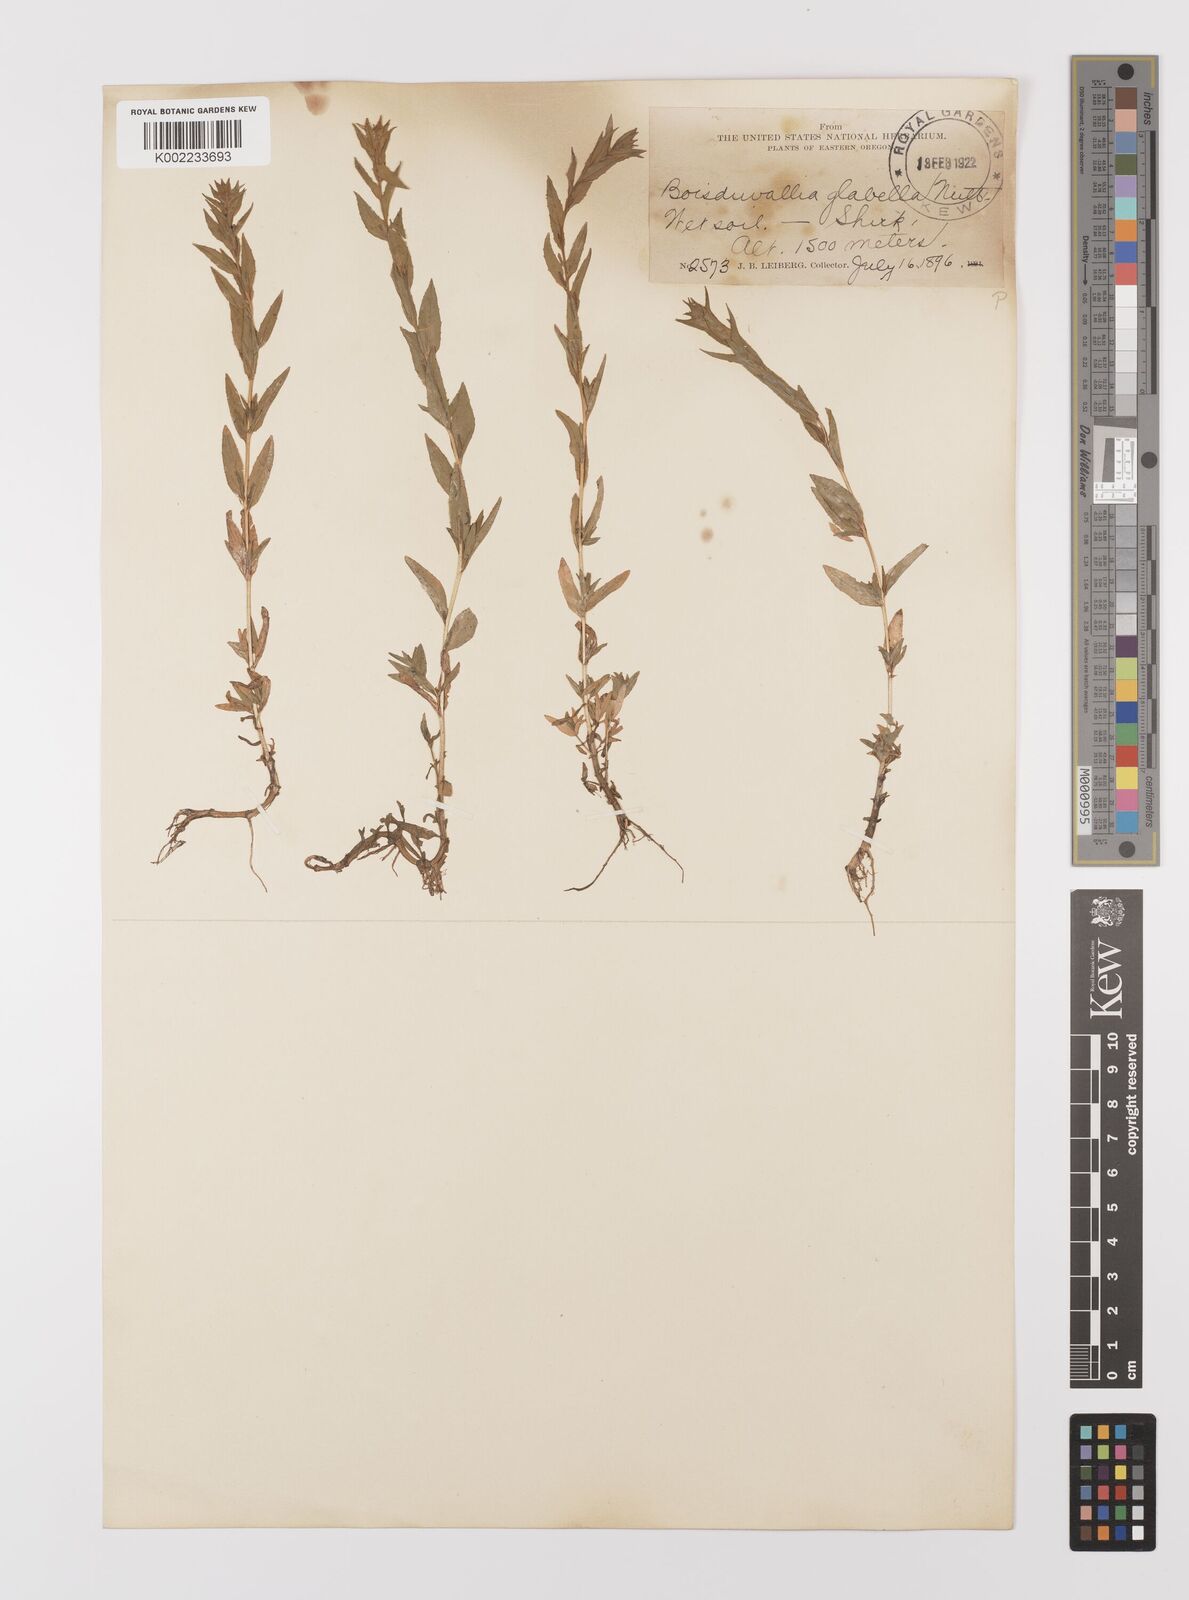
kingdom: Plantae
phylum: Tracheophyta
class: Magnoliopsida
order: Myrtales
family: Onagraceae
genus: Epilobium
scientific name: Epilobium campestre
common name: Smooth spike-primrose
